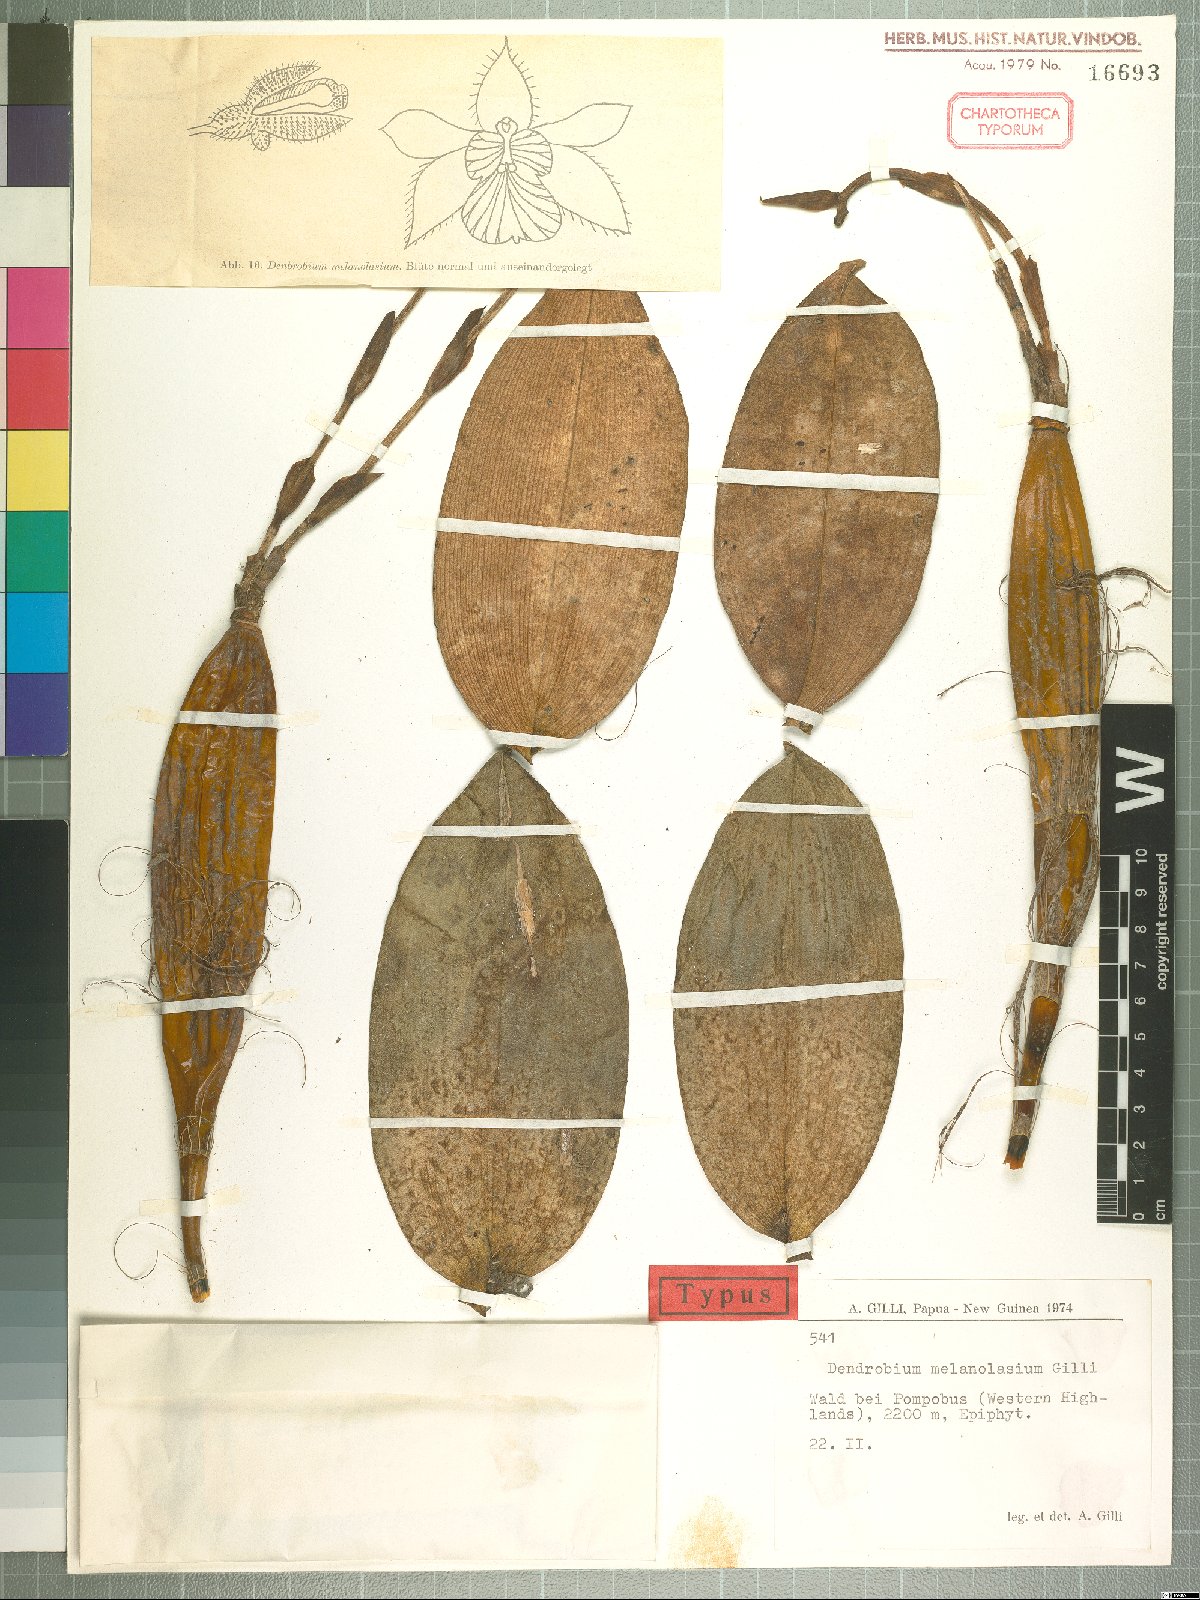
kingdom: Plantae
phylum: Tracheophyta
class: Liliopsida
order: Asparagales
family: Orchidaceae
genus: Dendrobium
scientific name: Dendrobium finisterrae
